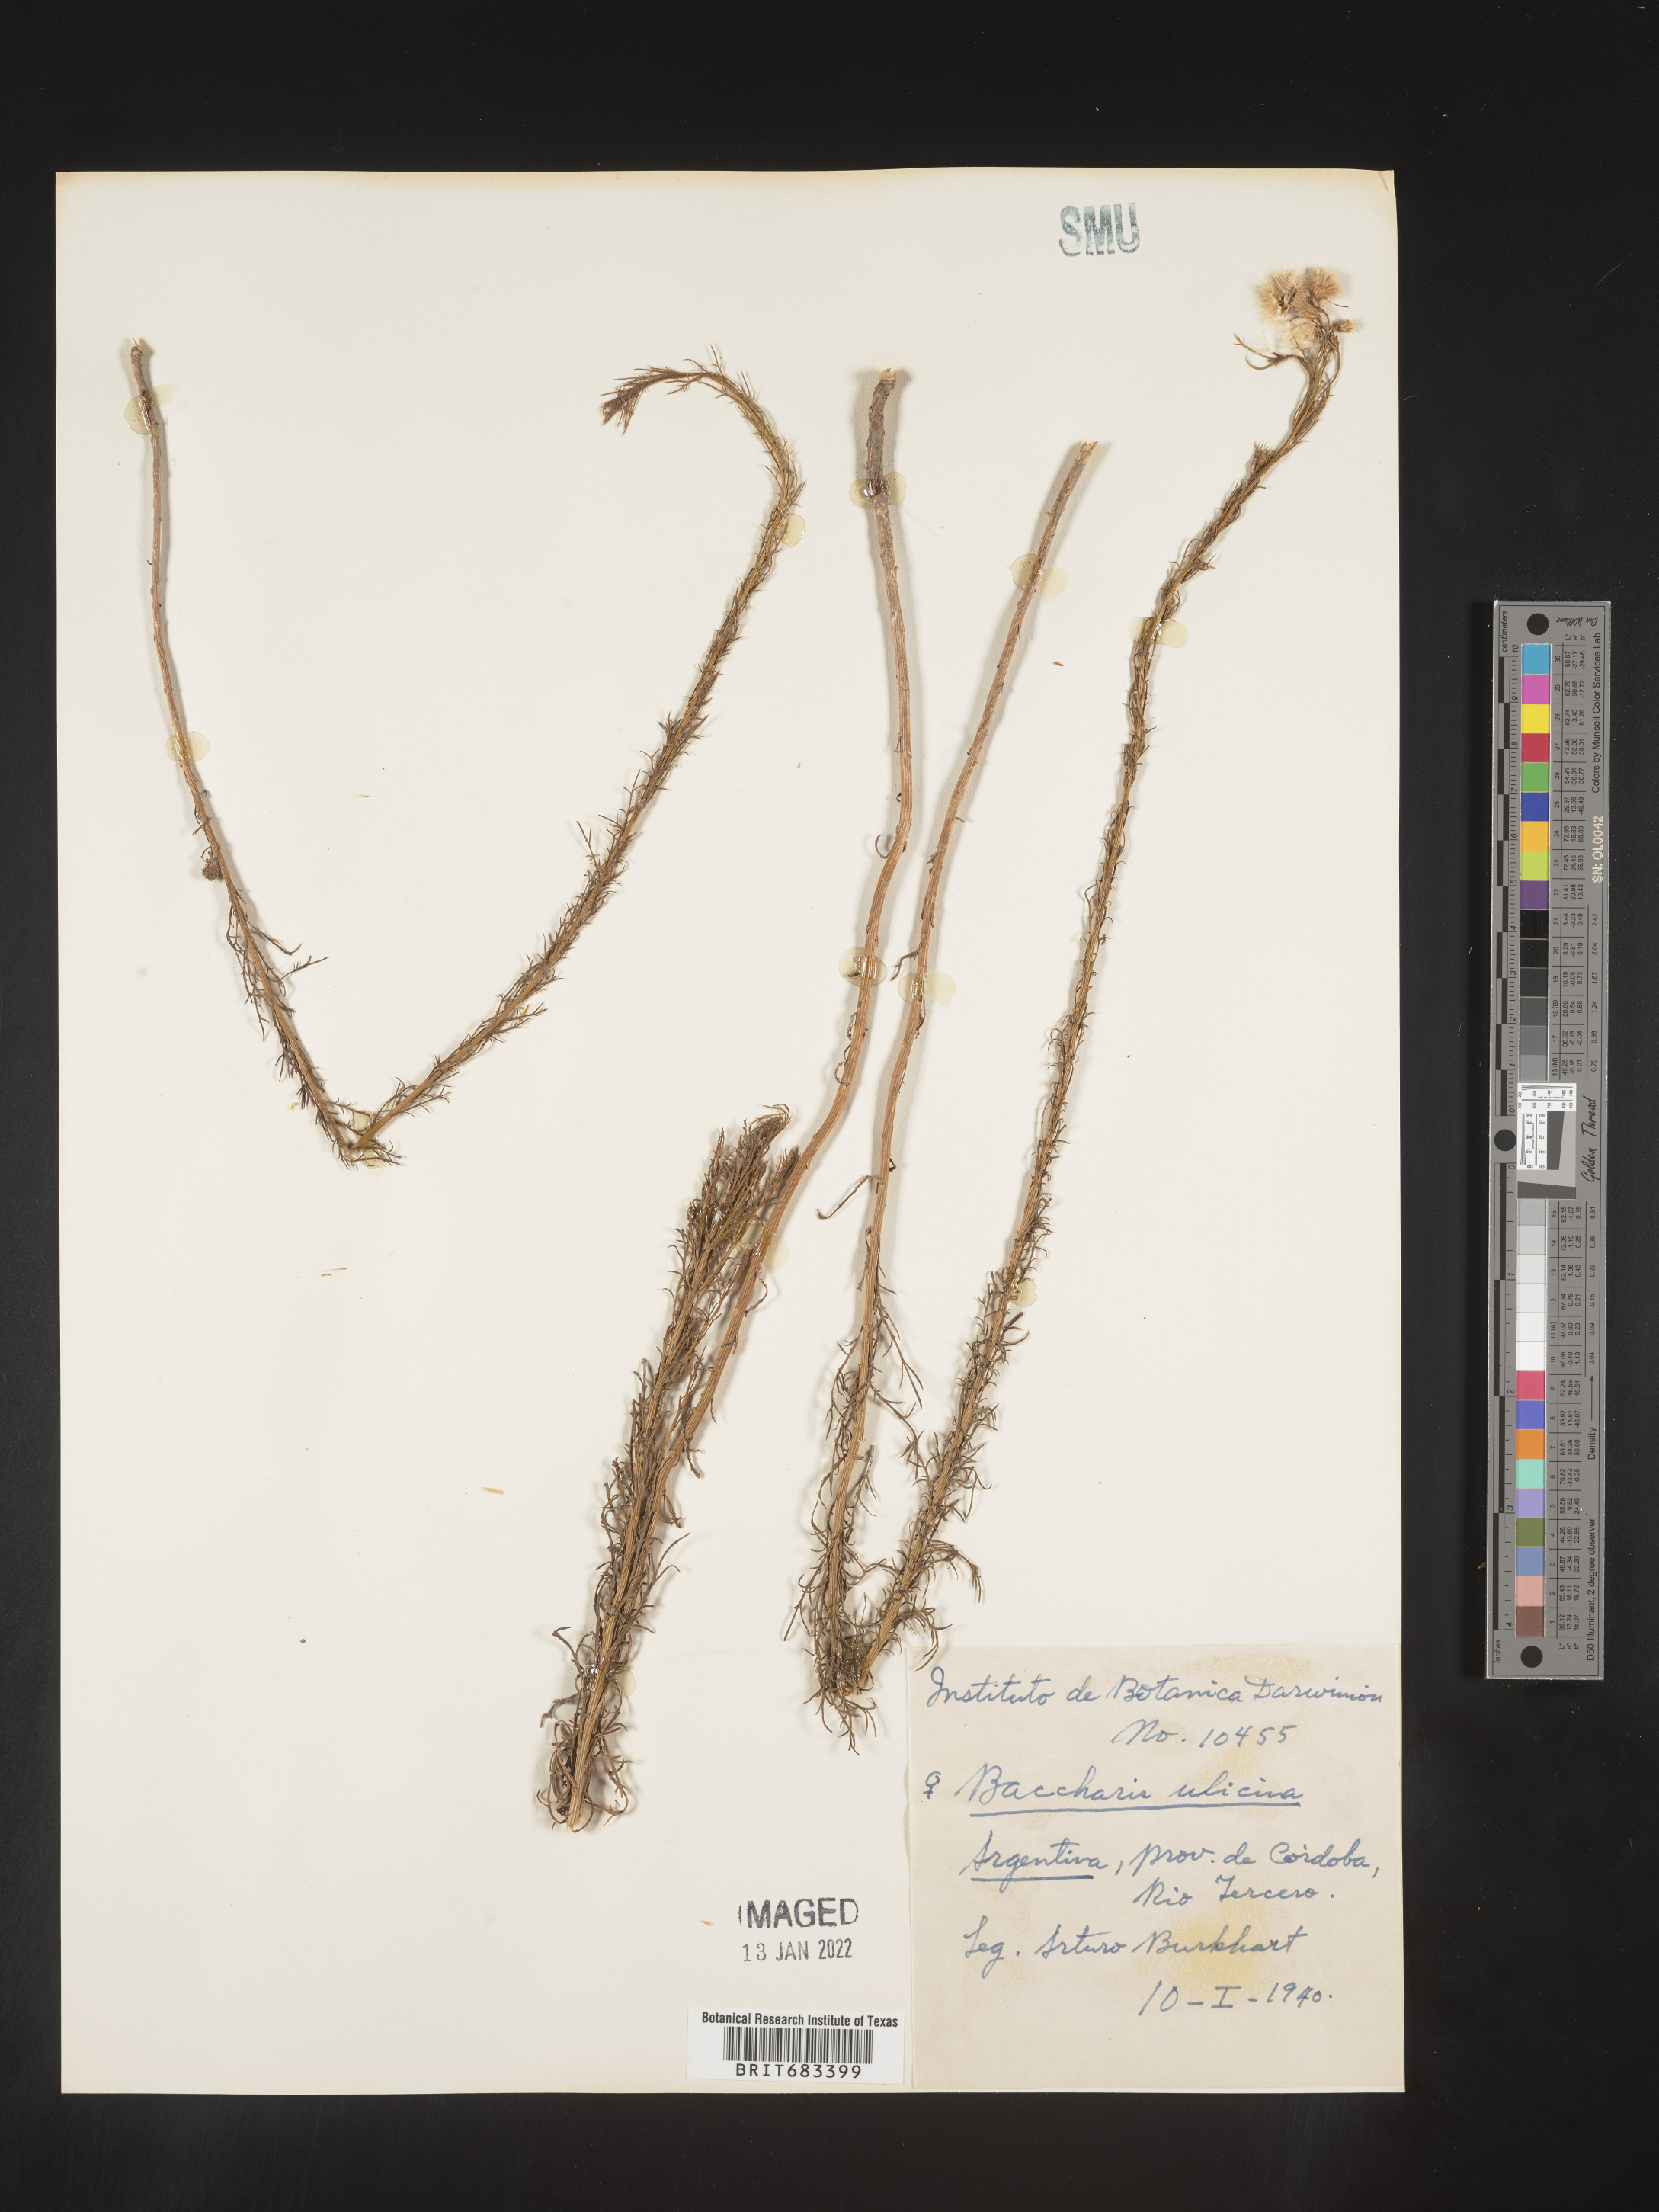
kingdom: Plantae
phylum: Tracheophyta
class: Magnoliopsida
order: Asterales
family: Asteraceae
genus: Baccharis
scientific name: Baccharis
